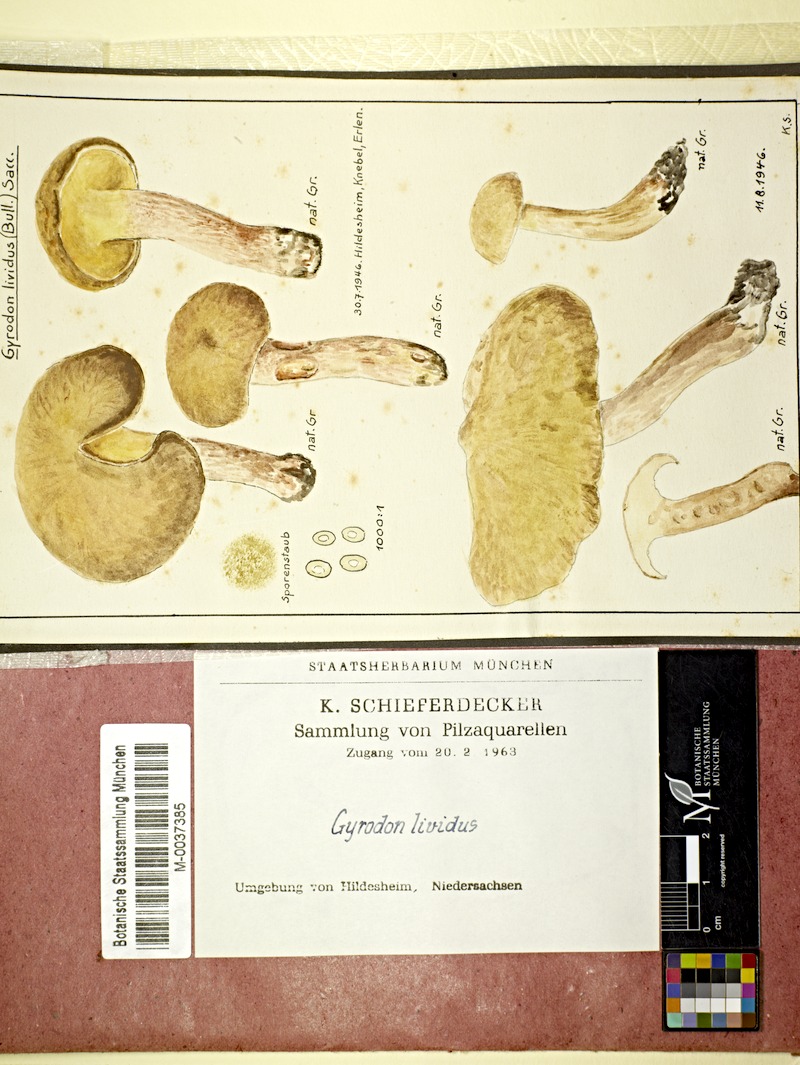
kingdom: Fungi
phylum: Basidiomycota
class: Agaricomycetes
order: Boletales
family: Paxillaceae
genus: Gyrodon
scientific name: Gyrodon lividus
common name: Alder bolete
